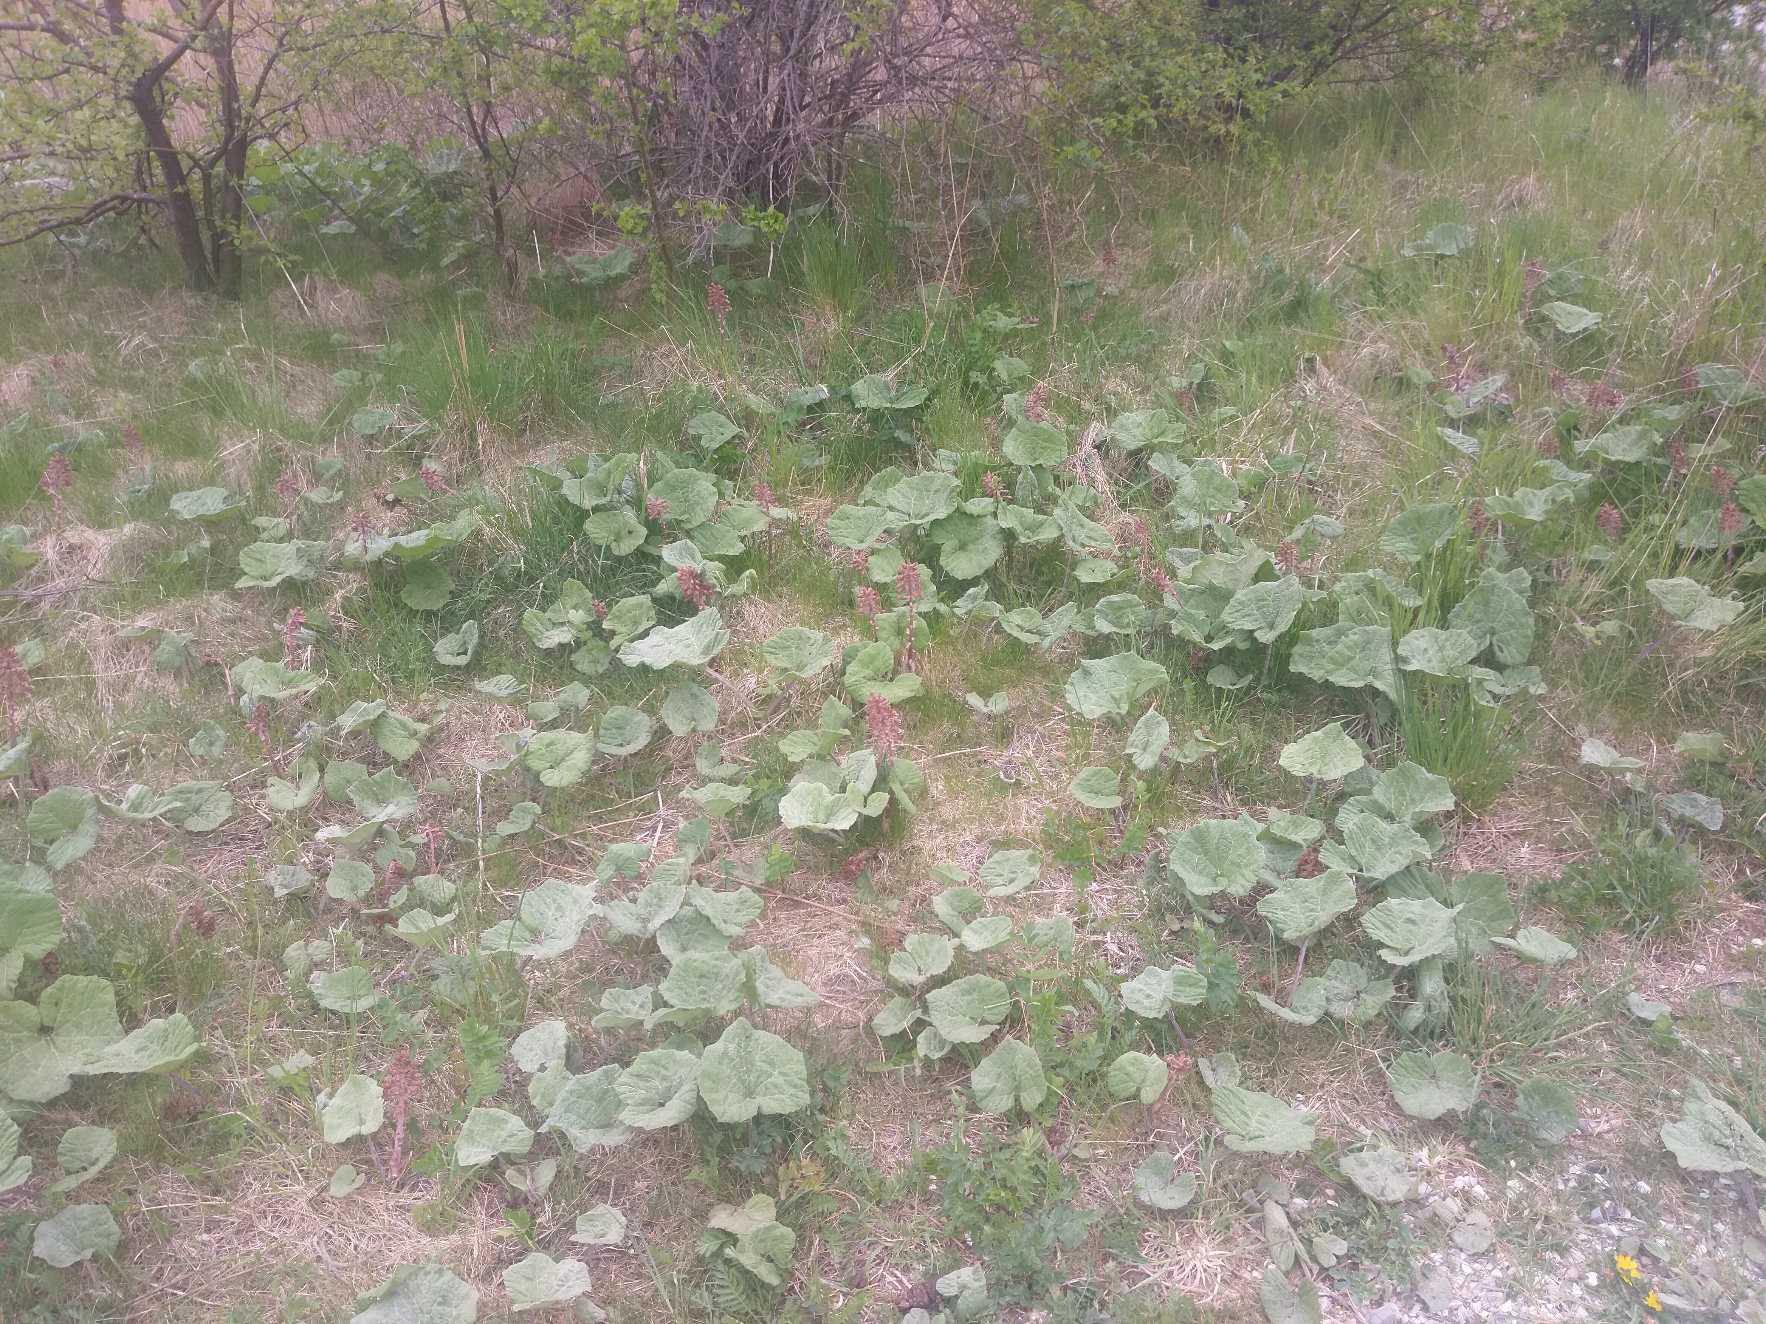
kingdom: Plantae
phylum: Tracheophyta
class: Magnoliopsida
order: Asterales
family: Asteraceae
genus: Petasites
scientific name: Petasites hybridus
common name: Rød hestehov
